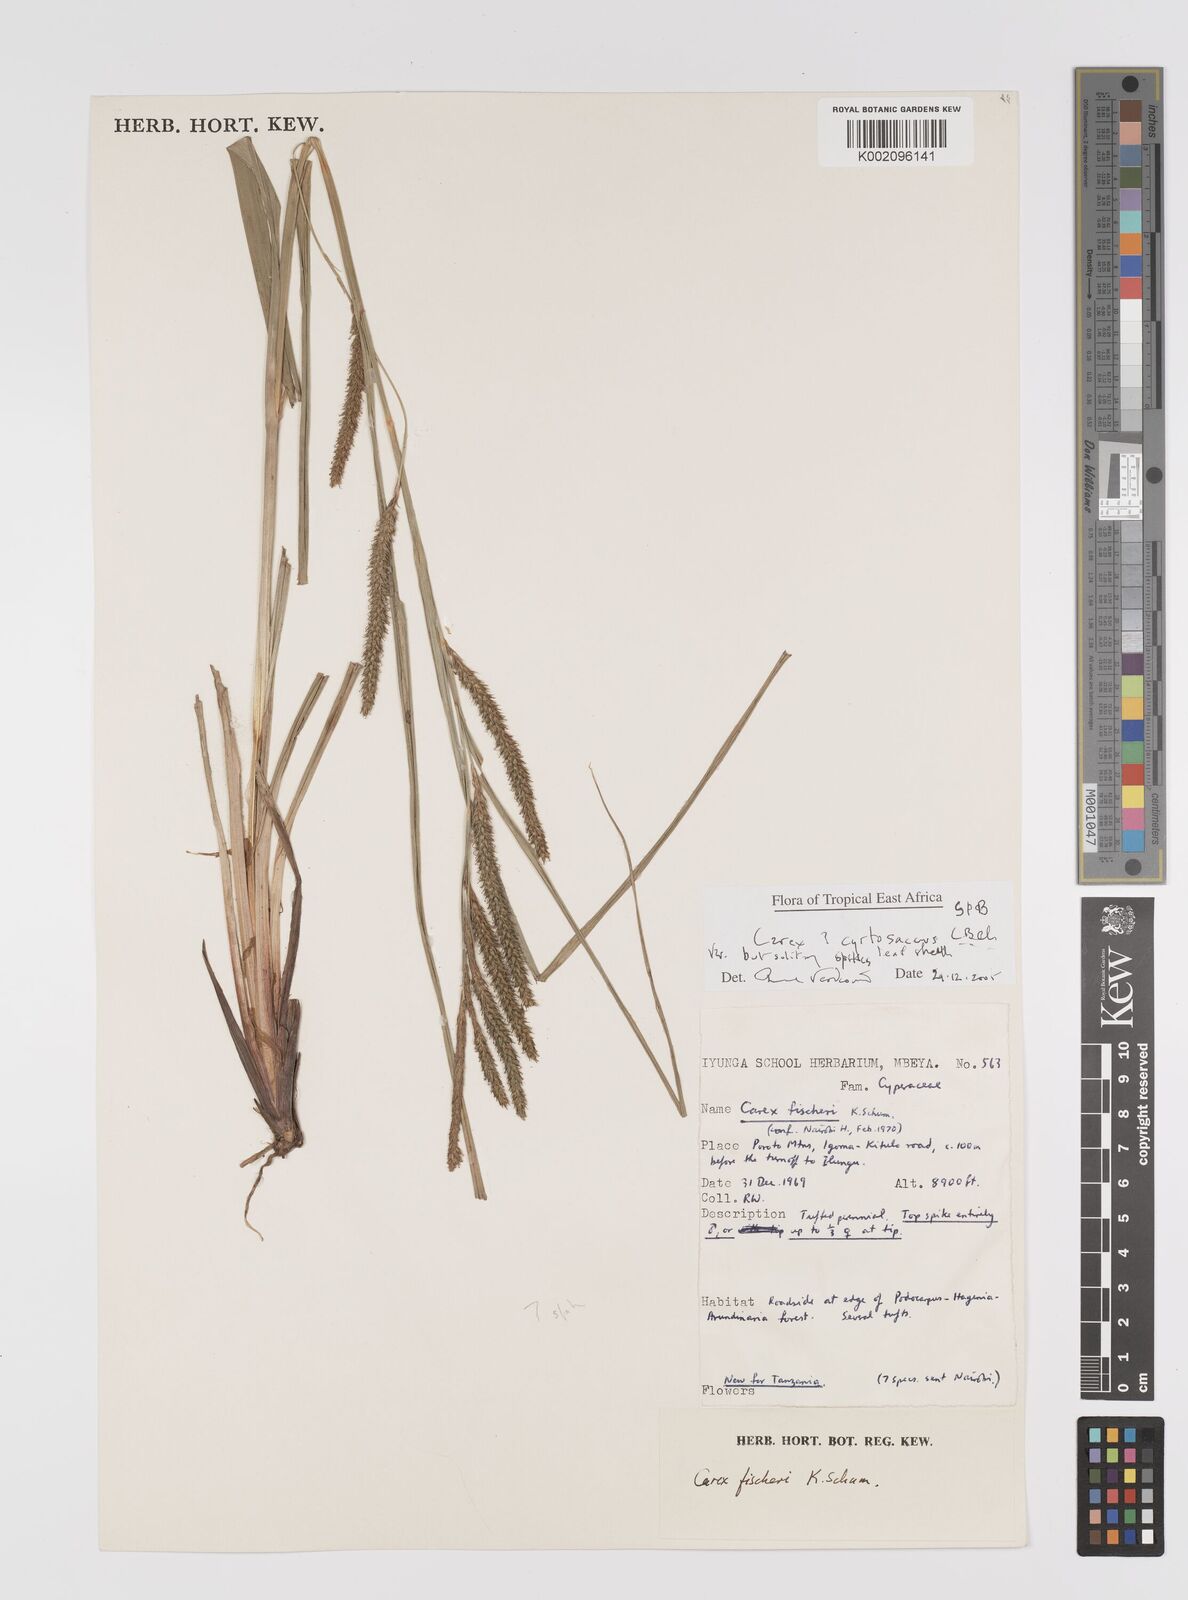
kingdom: Plantae
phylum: Tracheophyta
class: Liliopsida
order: Poales
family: Cyperaceae
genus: Carex
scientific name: Carex
